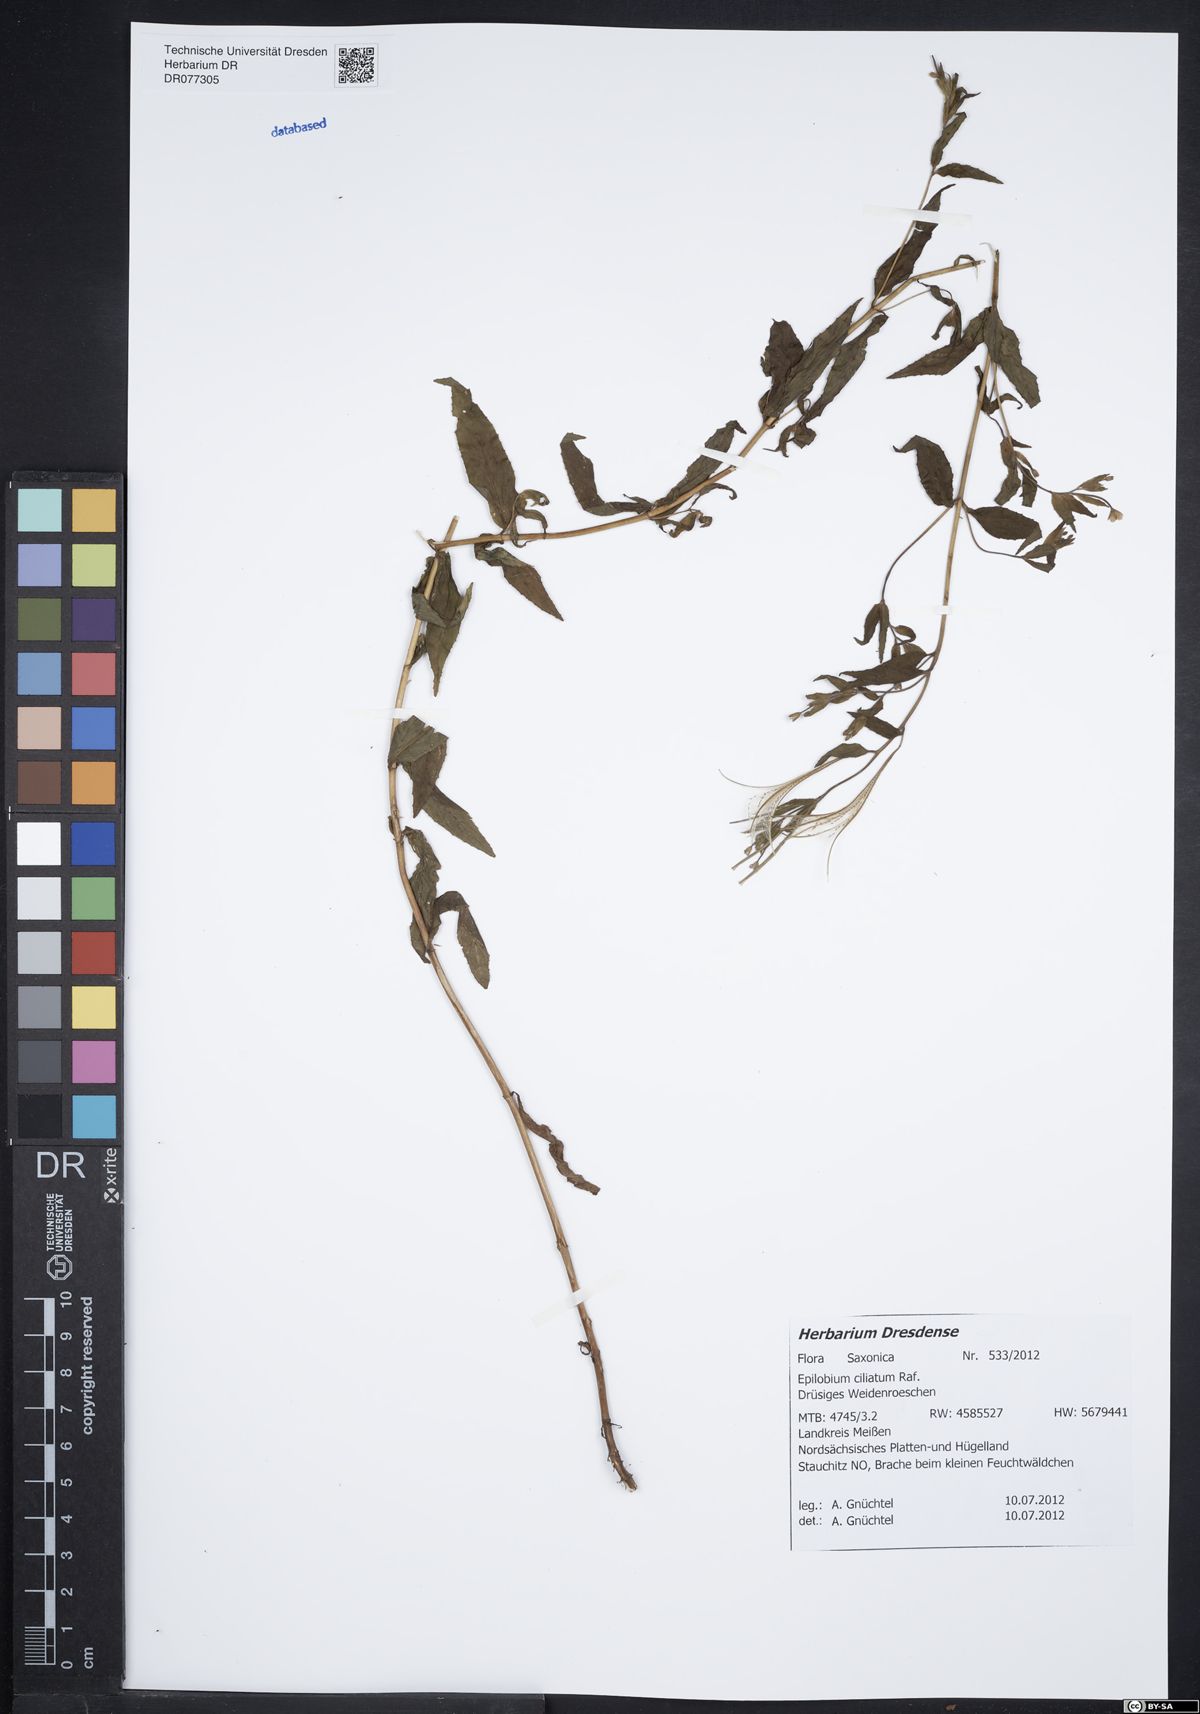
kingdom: Plantae
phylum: Tracheophyta
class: Magnoliopsida
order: Myrtales
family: Onagraceae
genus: Epilobium
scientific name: Epilobium ciliatum
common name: American willowherb
